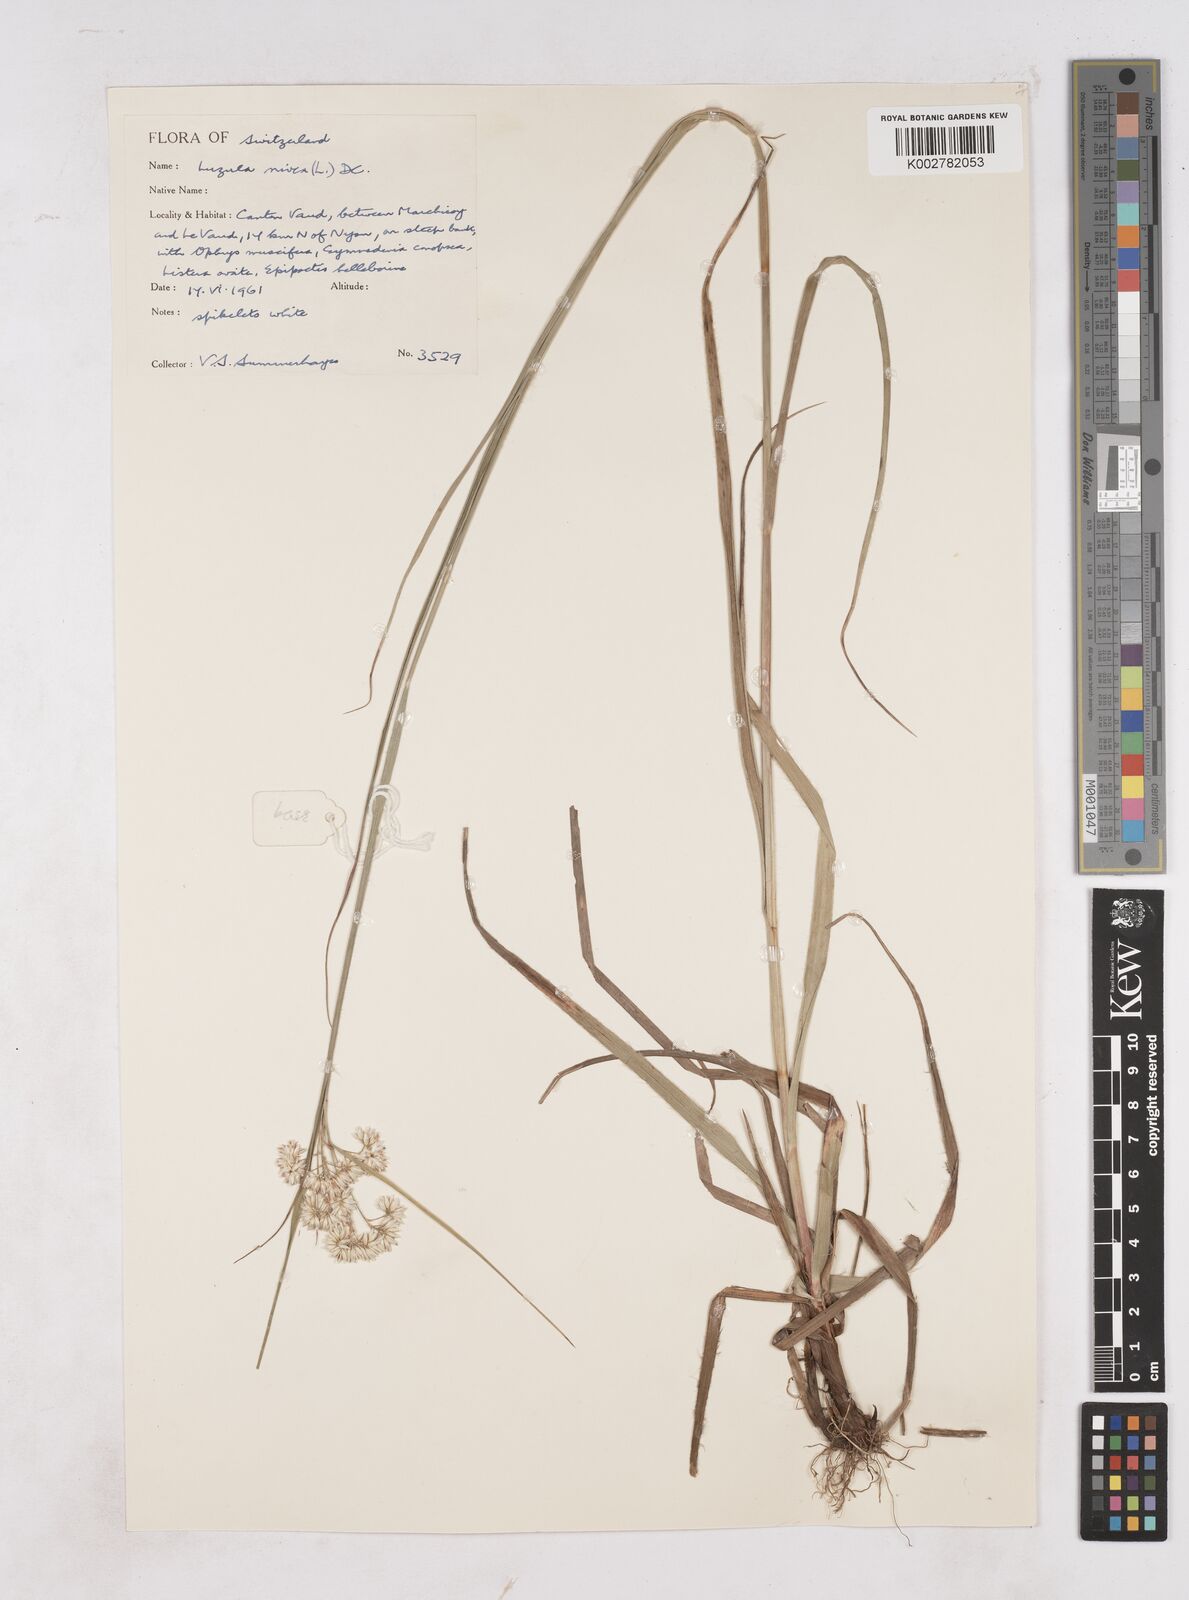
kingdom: Plantae
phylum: Tracheophyta
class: Liliopsida
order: Poales
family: Juncaceae
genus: Luzula
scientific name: Luzula nivea
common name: Snow-white wood-rush
